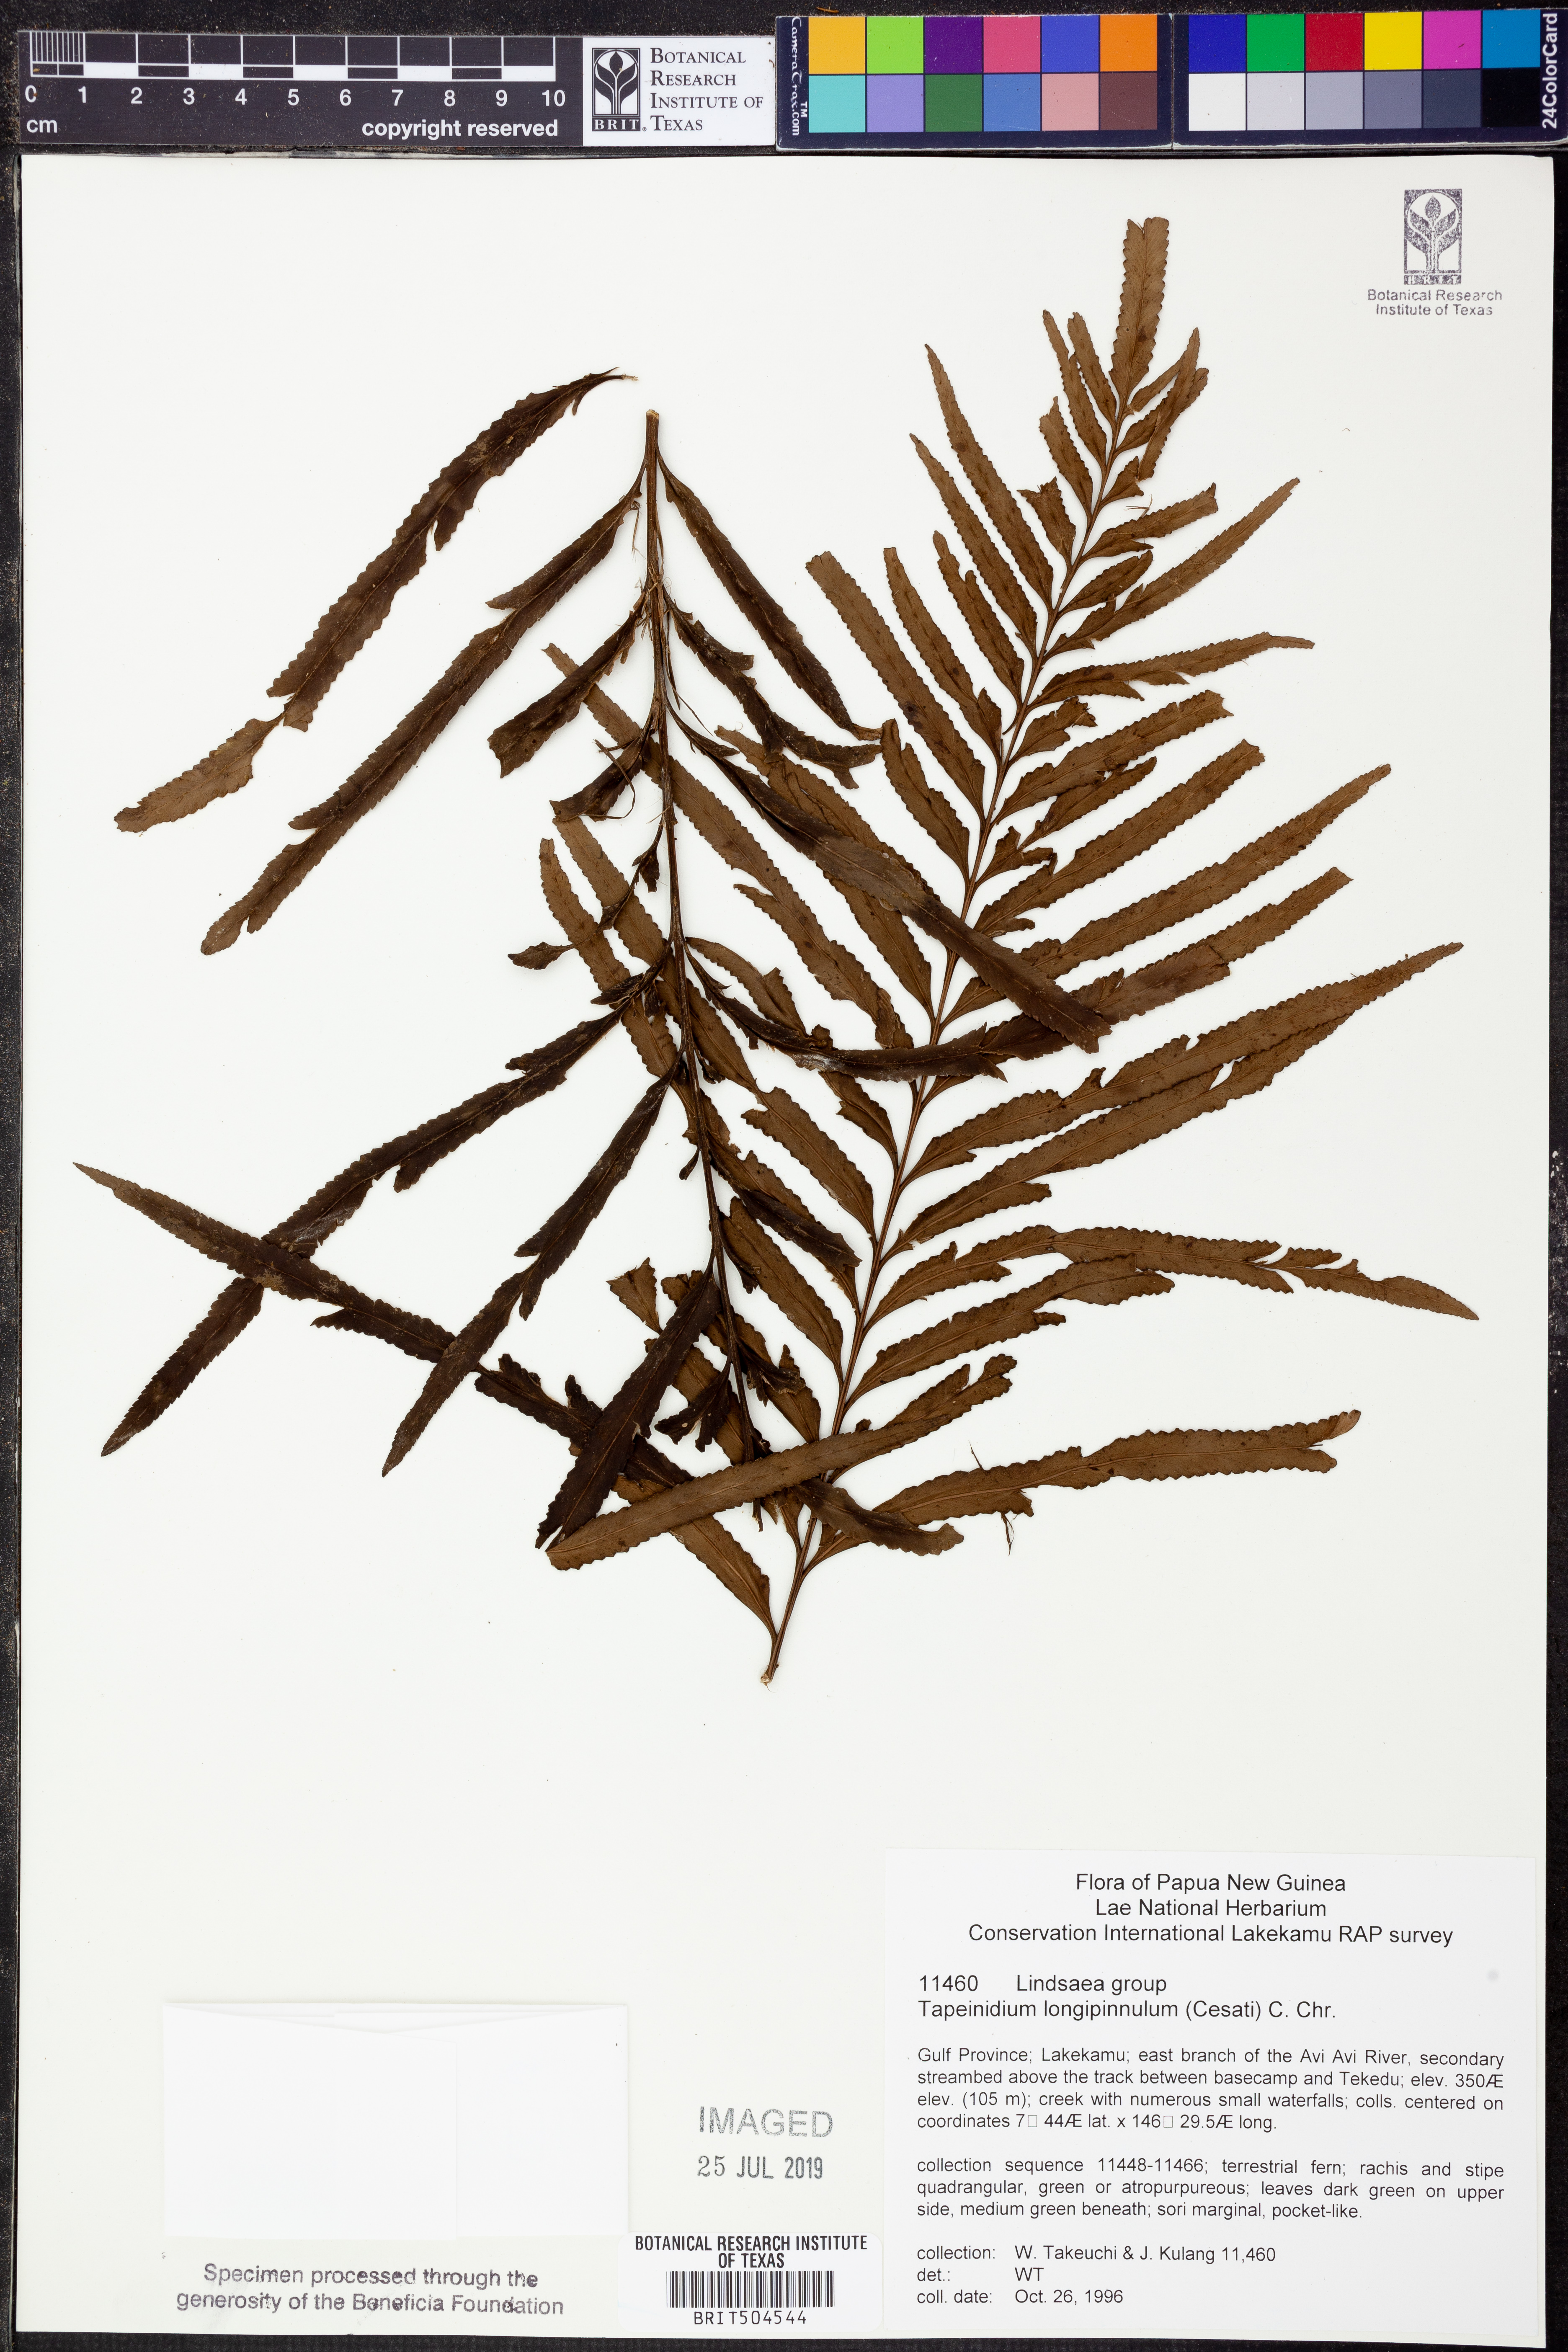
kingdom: Plantae
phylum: Tracheophyta
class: Polypodiopsida
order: Polypodiales
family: Lindsaeaceae
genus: Tapeinidium
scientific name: Tapeinidium longipinnulum
